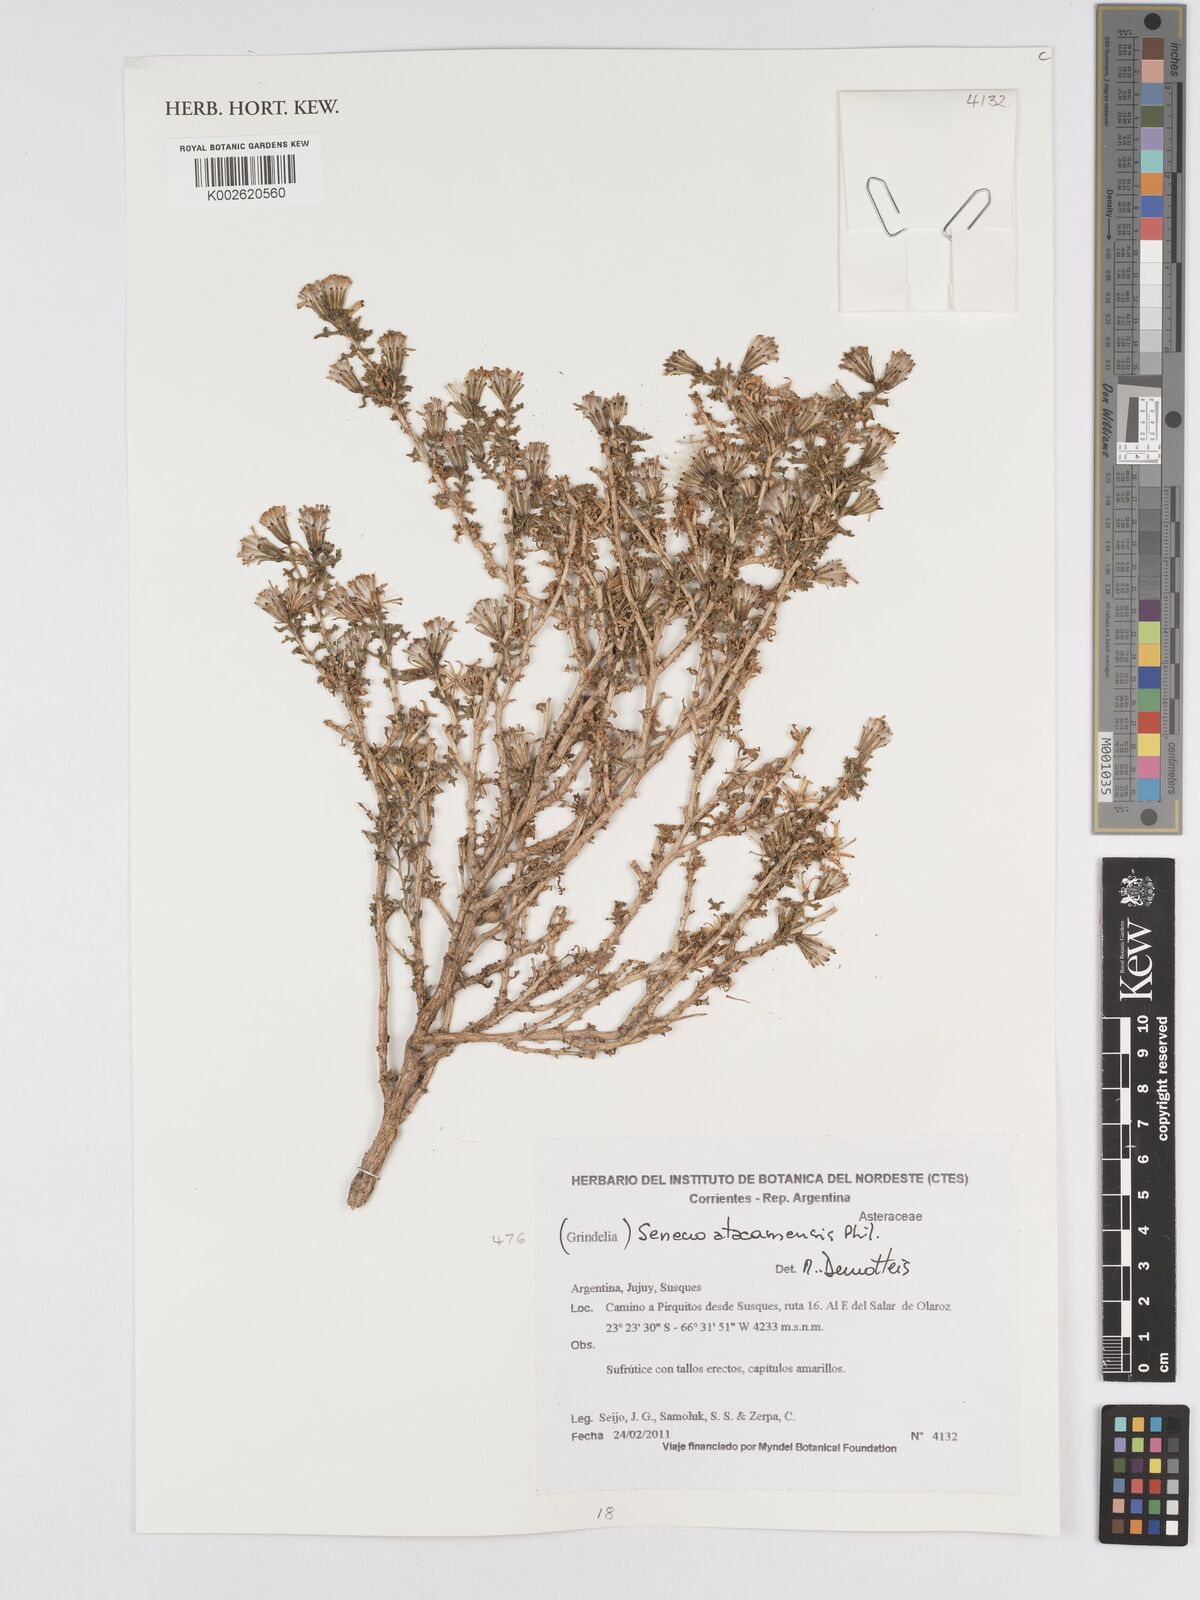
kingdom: Plantae
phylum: Tracheophyta
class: Magnoliopsida
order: Asterales
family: Asteraceae
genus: Senecio
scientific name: Senecio atacamensis
